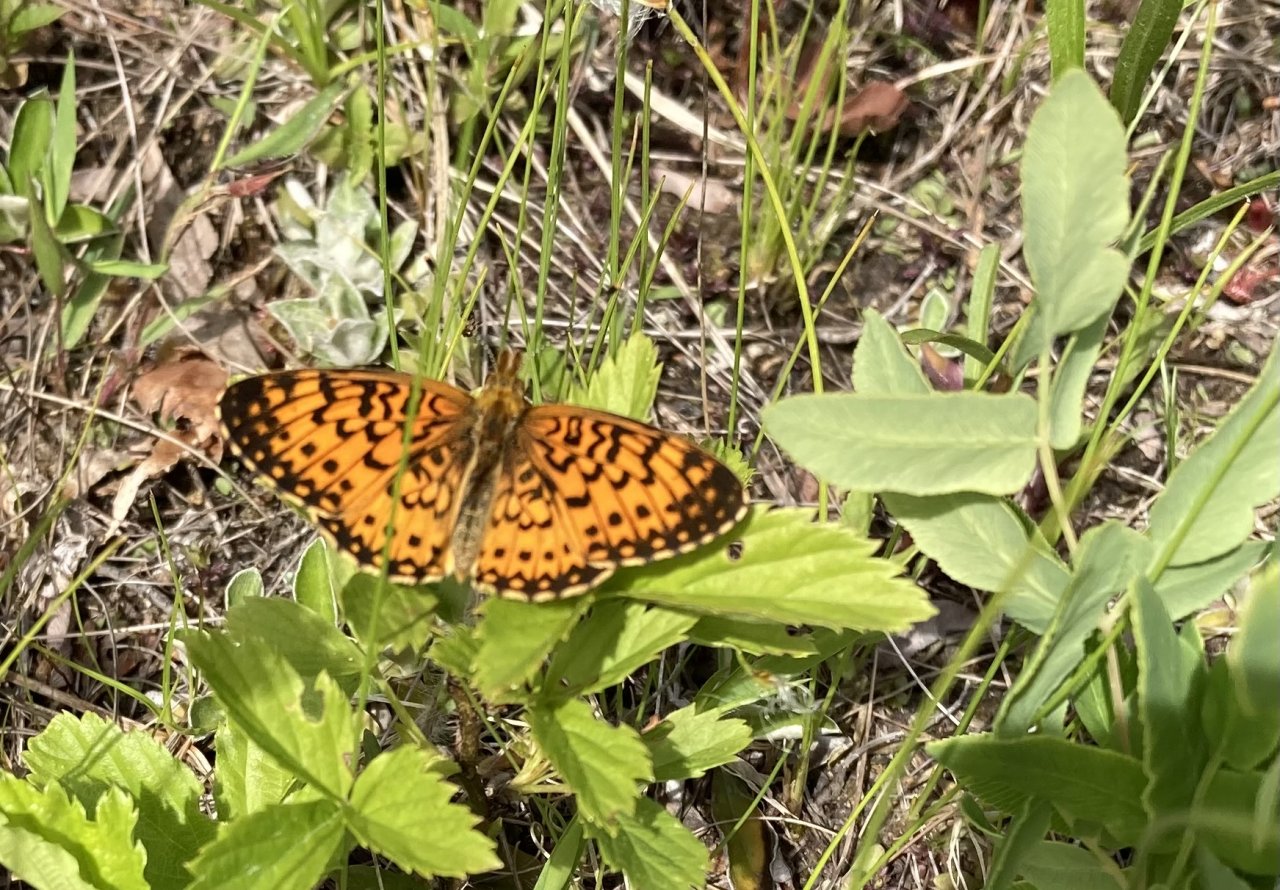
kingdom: Animalia
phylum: Arthropoda
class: Insecta
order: Lepidoptera
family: Nymphalidae
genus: Boloria
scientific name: Boloria selene
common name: Silver-bordered Fritillary
